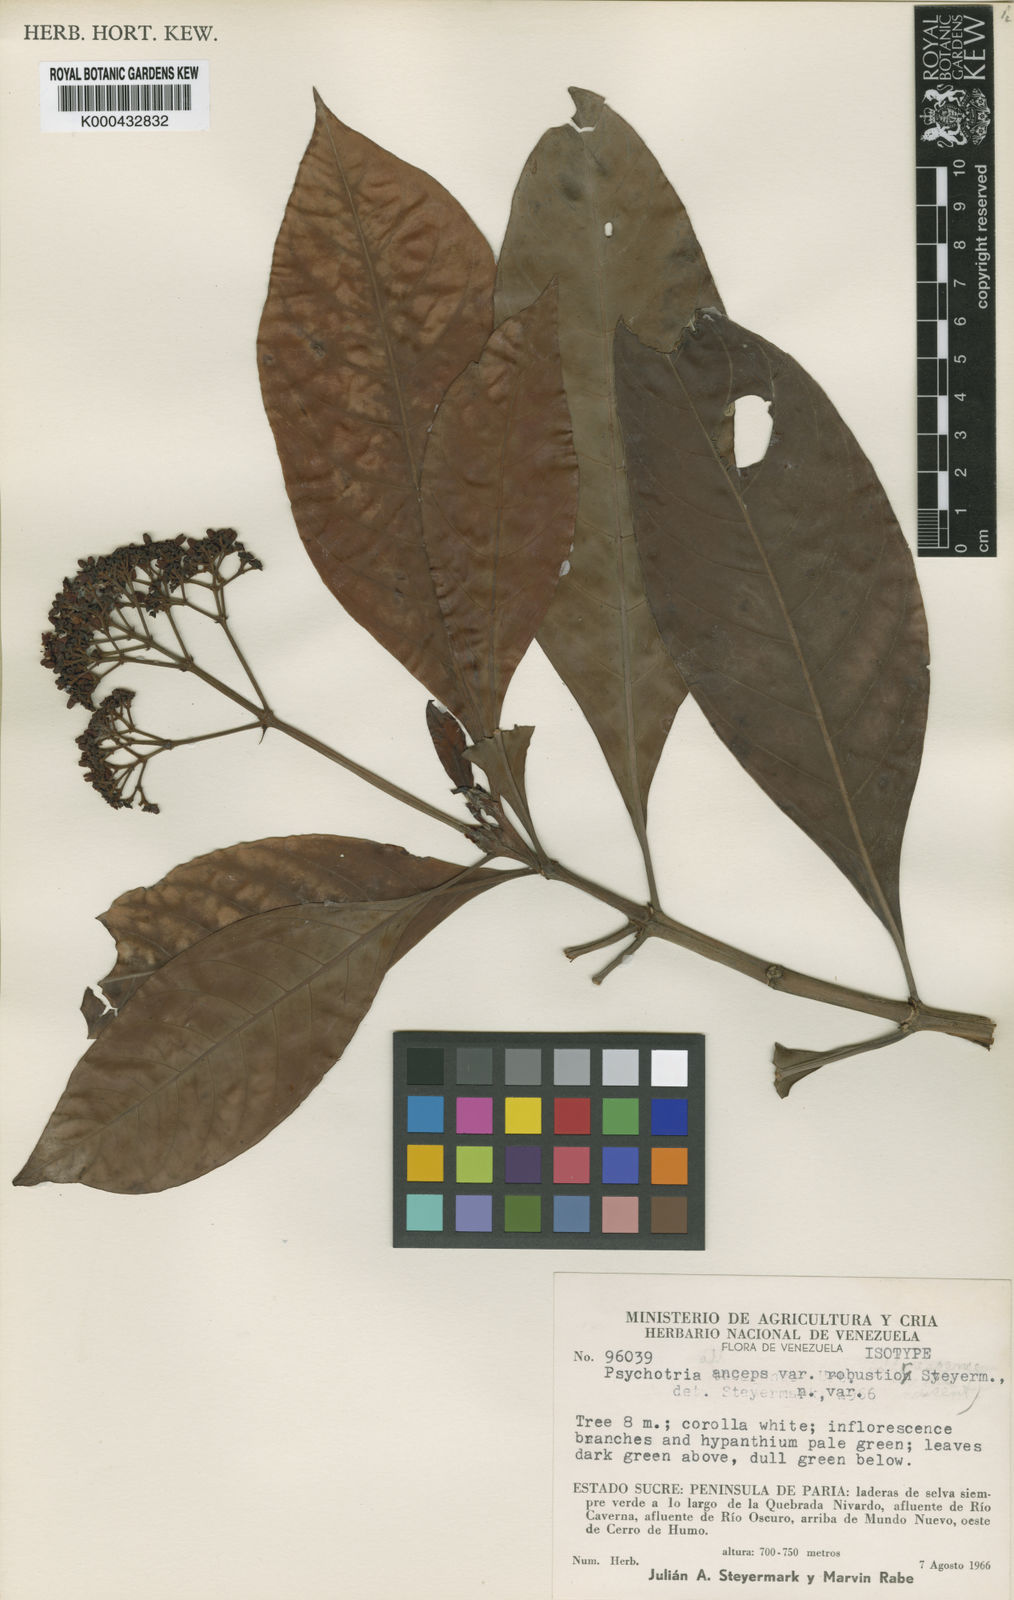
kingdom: Plantae
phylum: Tracheophyta
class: Magnoliopsida
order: Gentianales
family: Rubiaceae
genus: Psychotria
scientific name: Psychotria anceps
